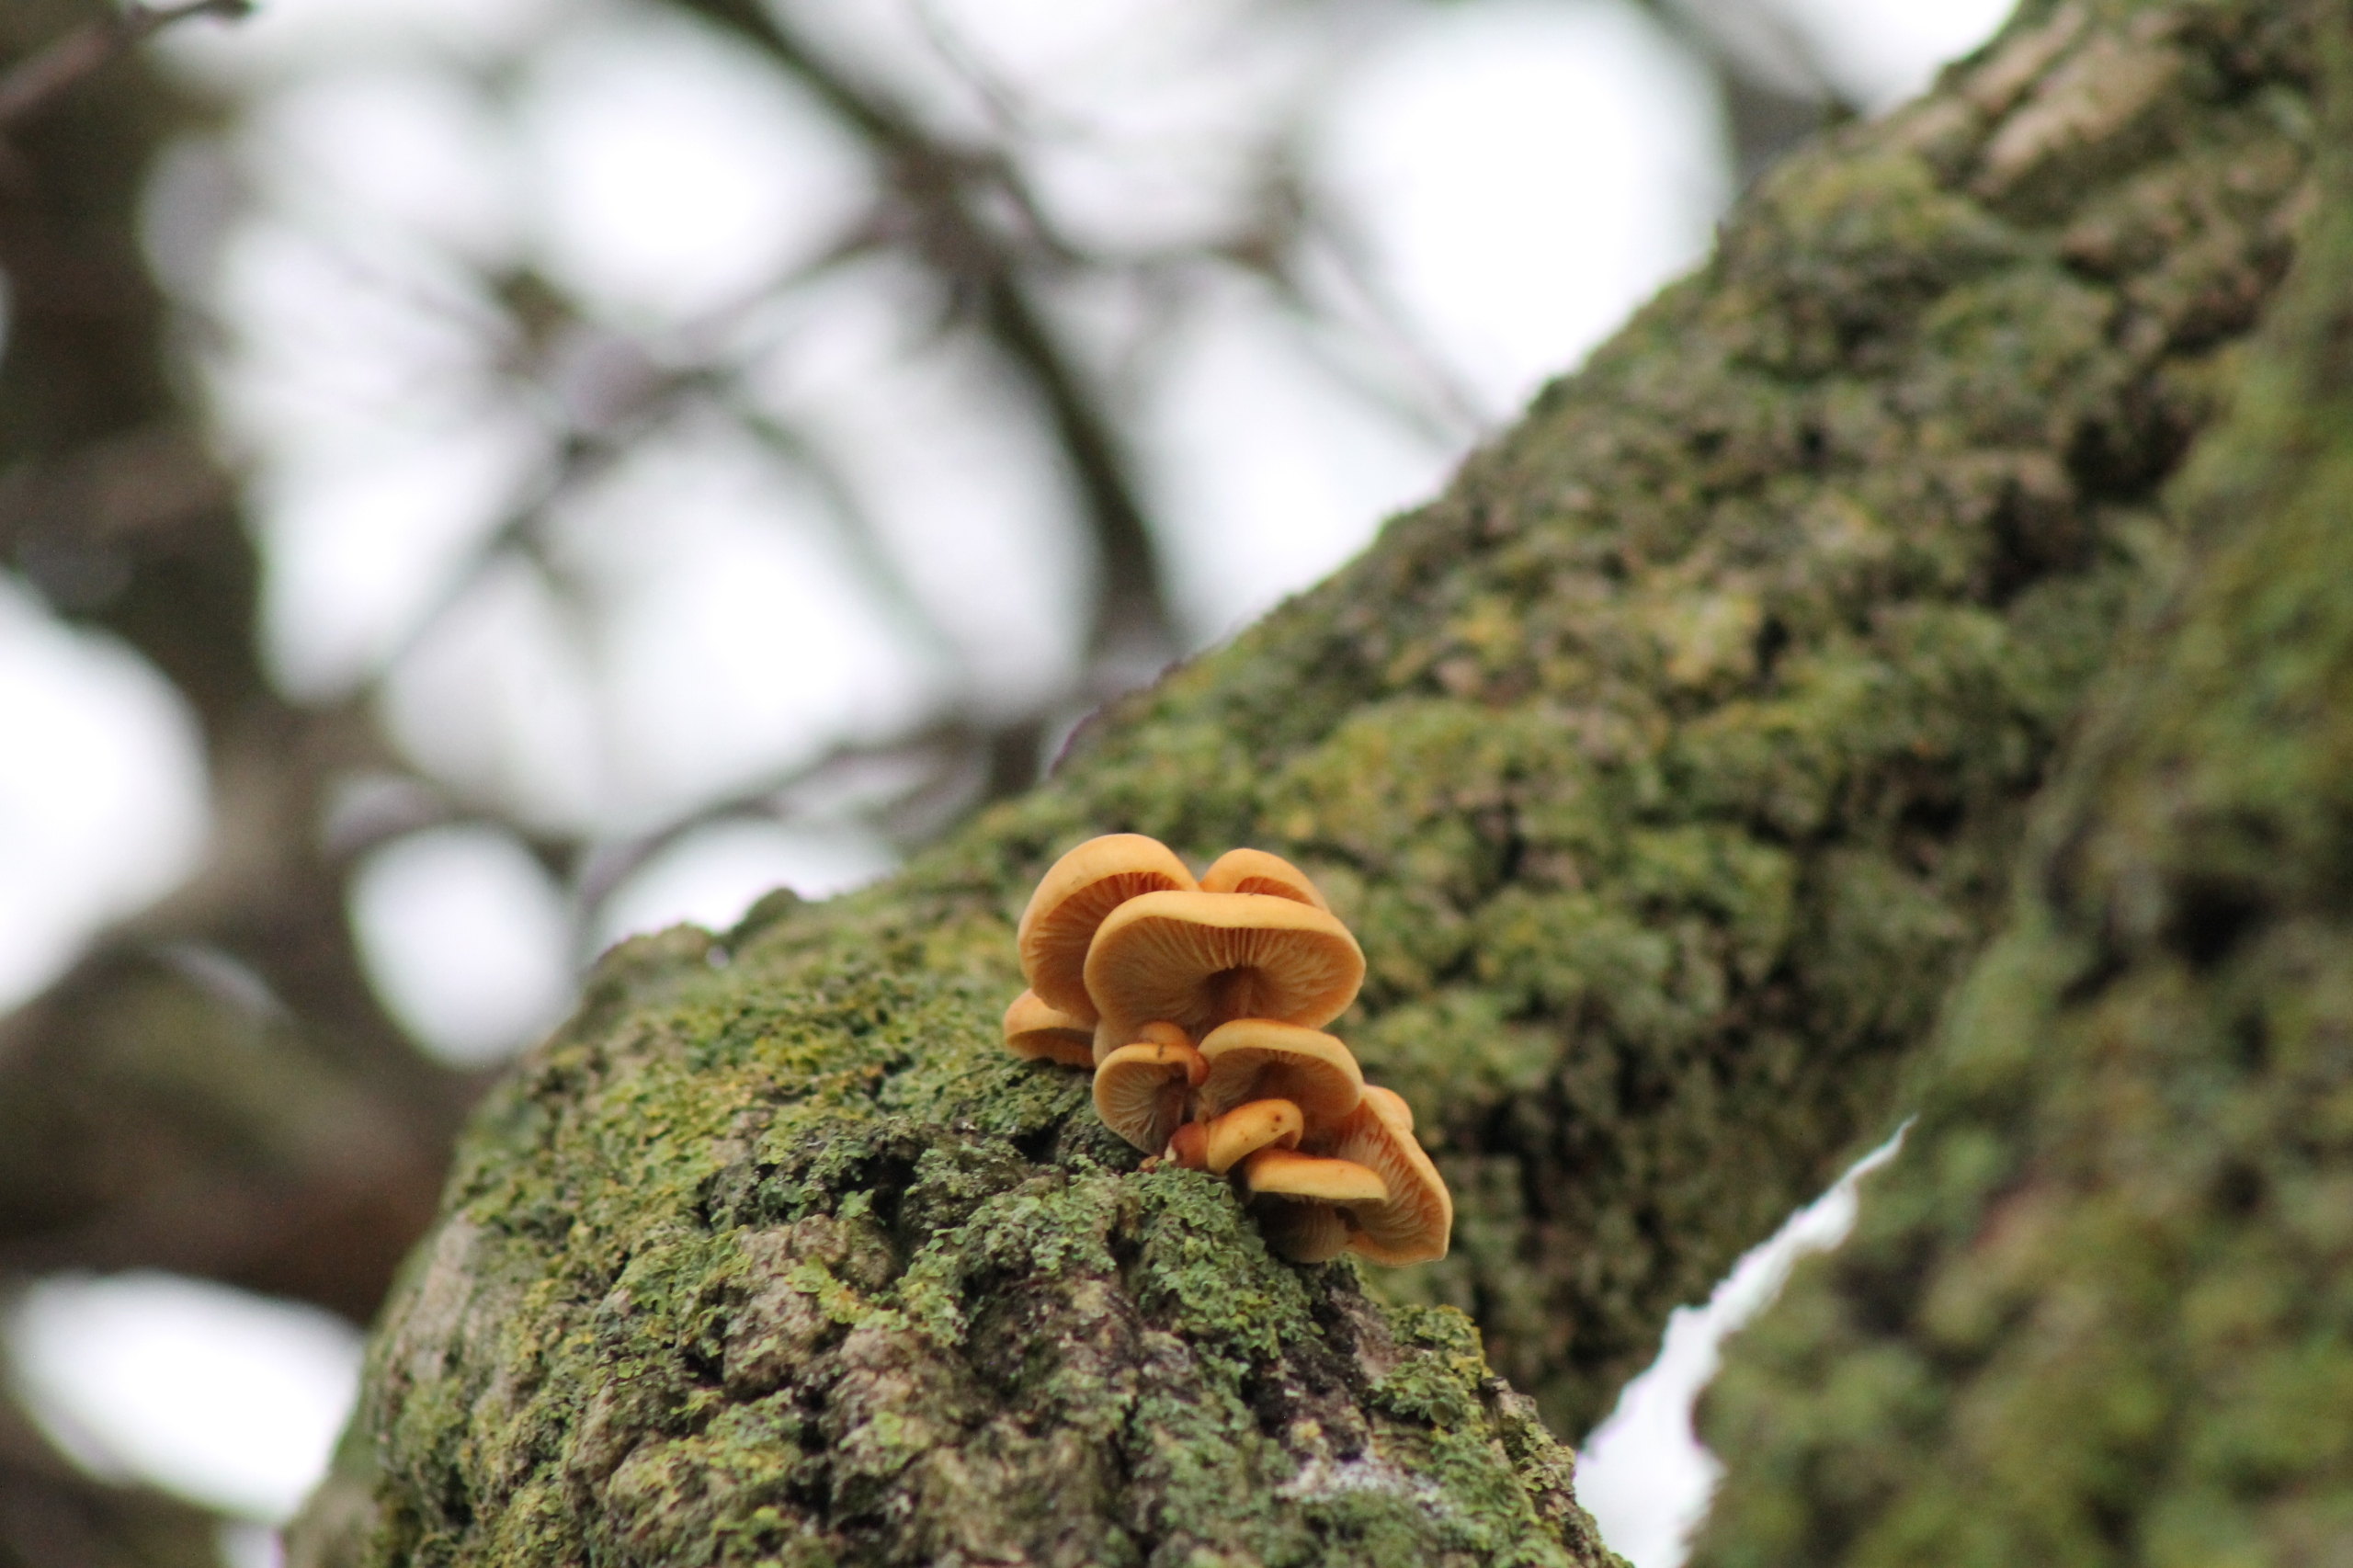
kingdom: Fungi
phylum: Basidiomycota
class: Agaricomycetes
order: Agaricales
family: Physalacriaceae
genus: Flammulina
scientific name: Flammulina
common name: Fløjlsfod
